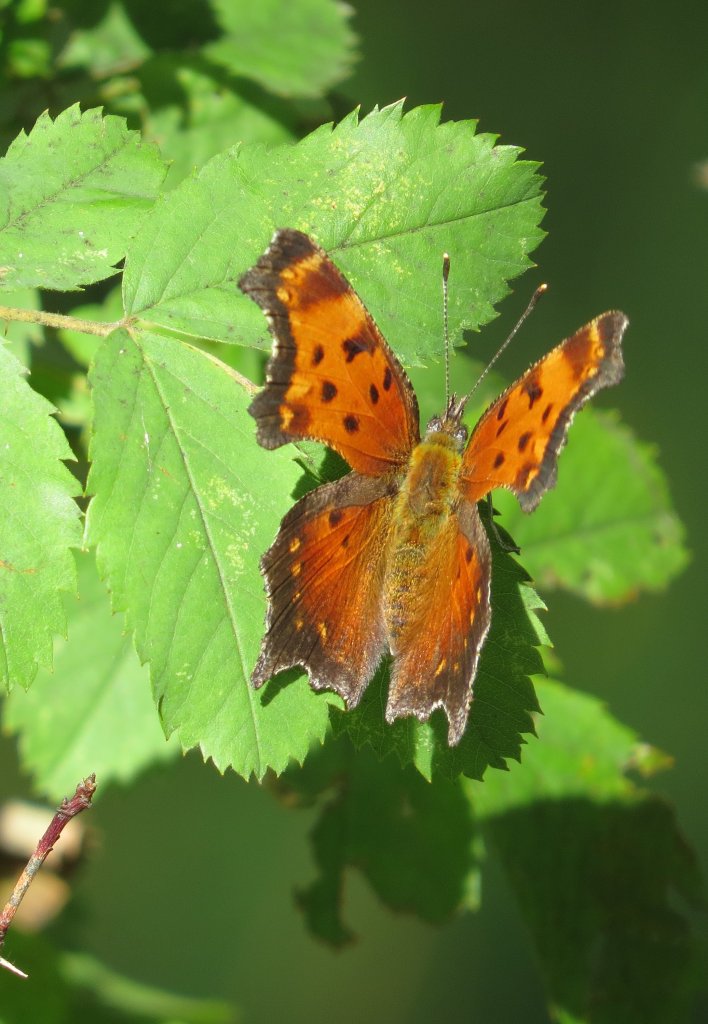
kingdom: Animalia
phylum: Arthropoda
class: Insecta
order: Lepidoptera
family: Nymphalidae
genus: Polygonia
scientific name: Polygonia progne
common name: Gray Comma
